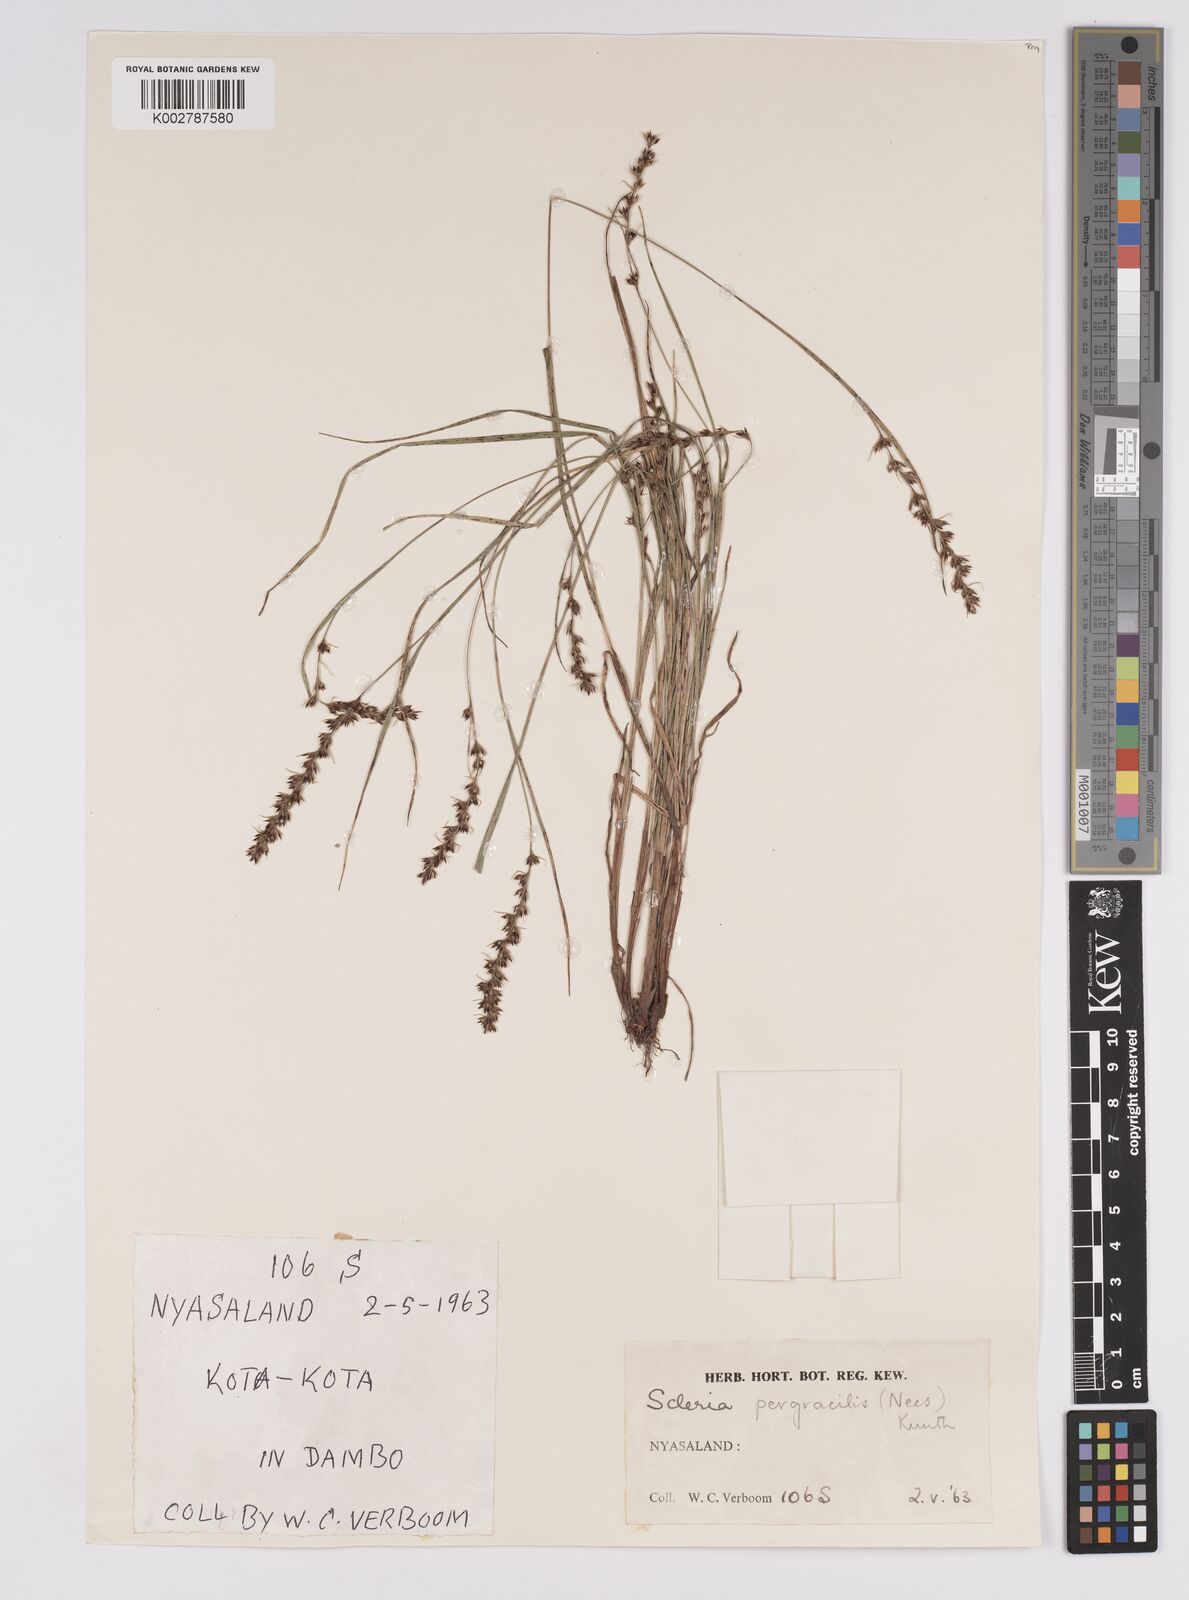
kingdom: Plantae
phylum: Tracheophyta
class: Liliopsida
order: Poales
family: Cyperaceae
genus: Scleria
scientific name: Scleria pergracilis
